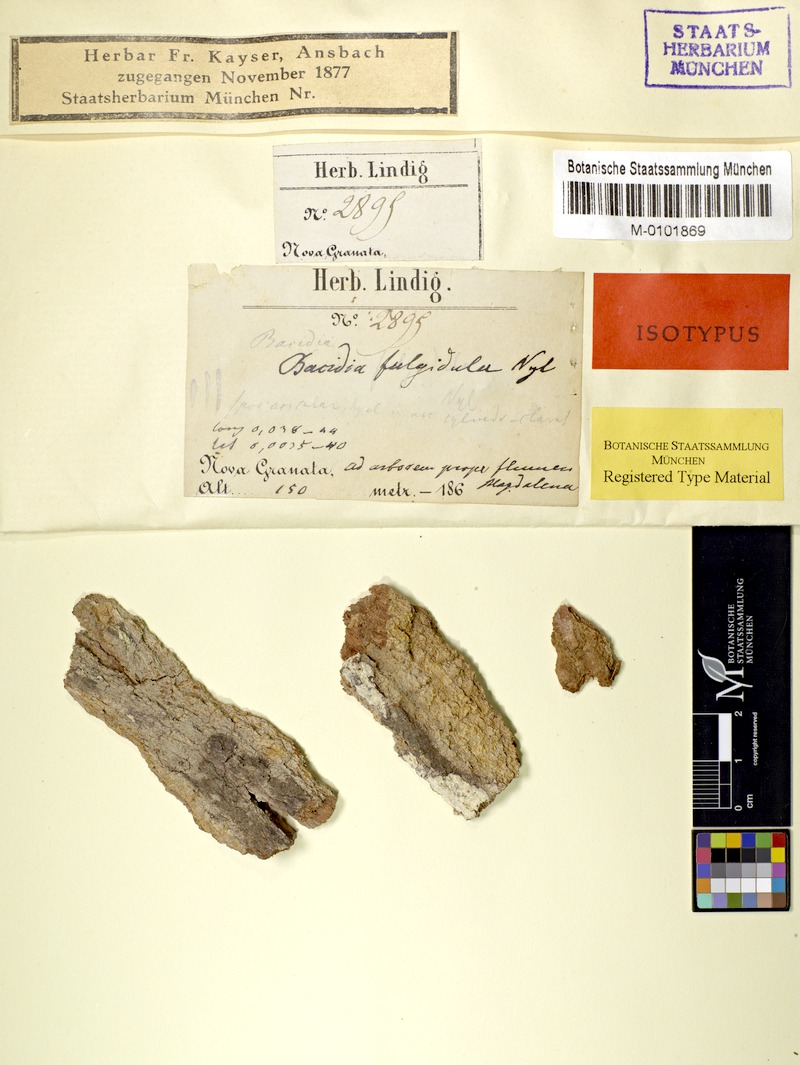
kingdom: Fungi
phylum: Ascomycota
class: Lecanoromycetes
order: Lecanorales
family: Ramalinaceae
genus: Bacidia
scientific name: Bacidia fulgidula
